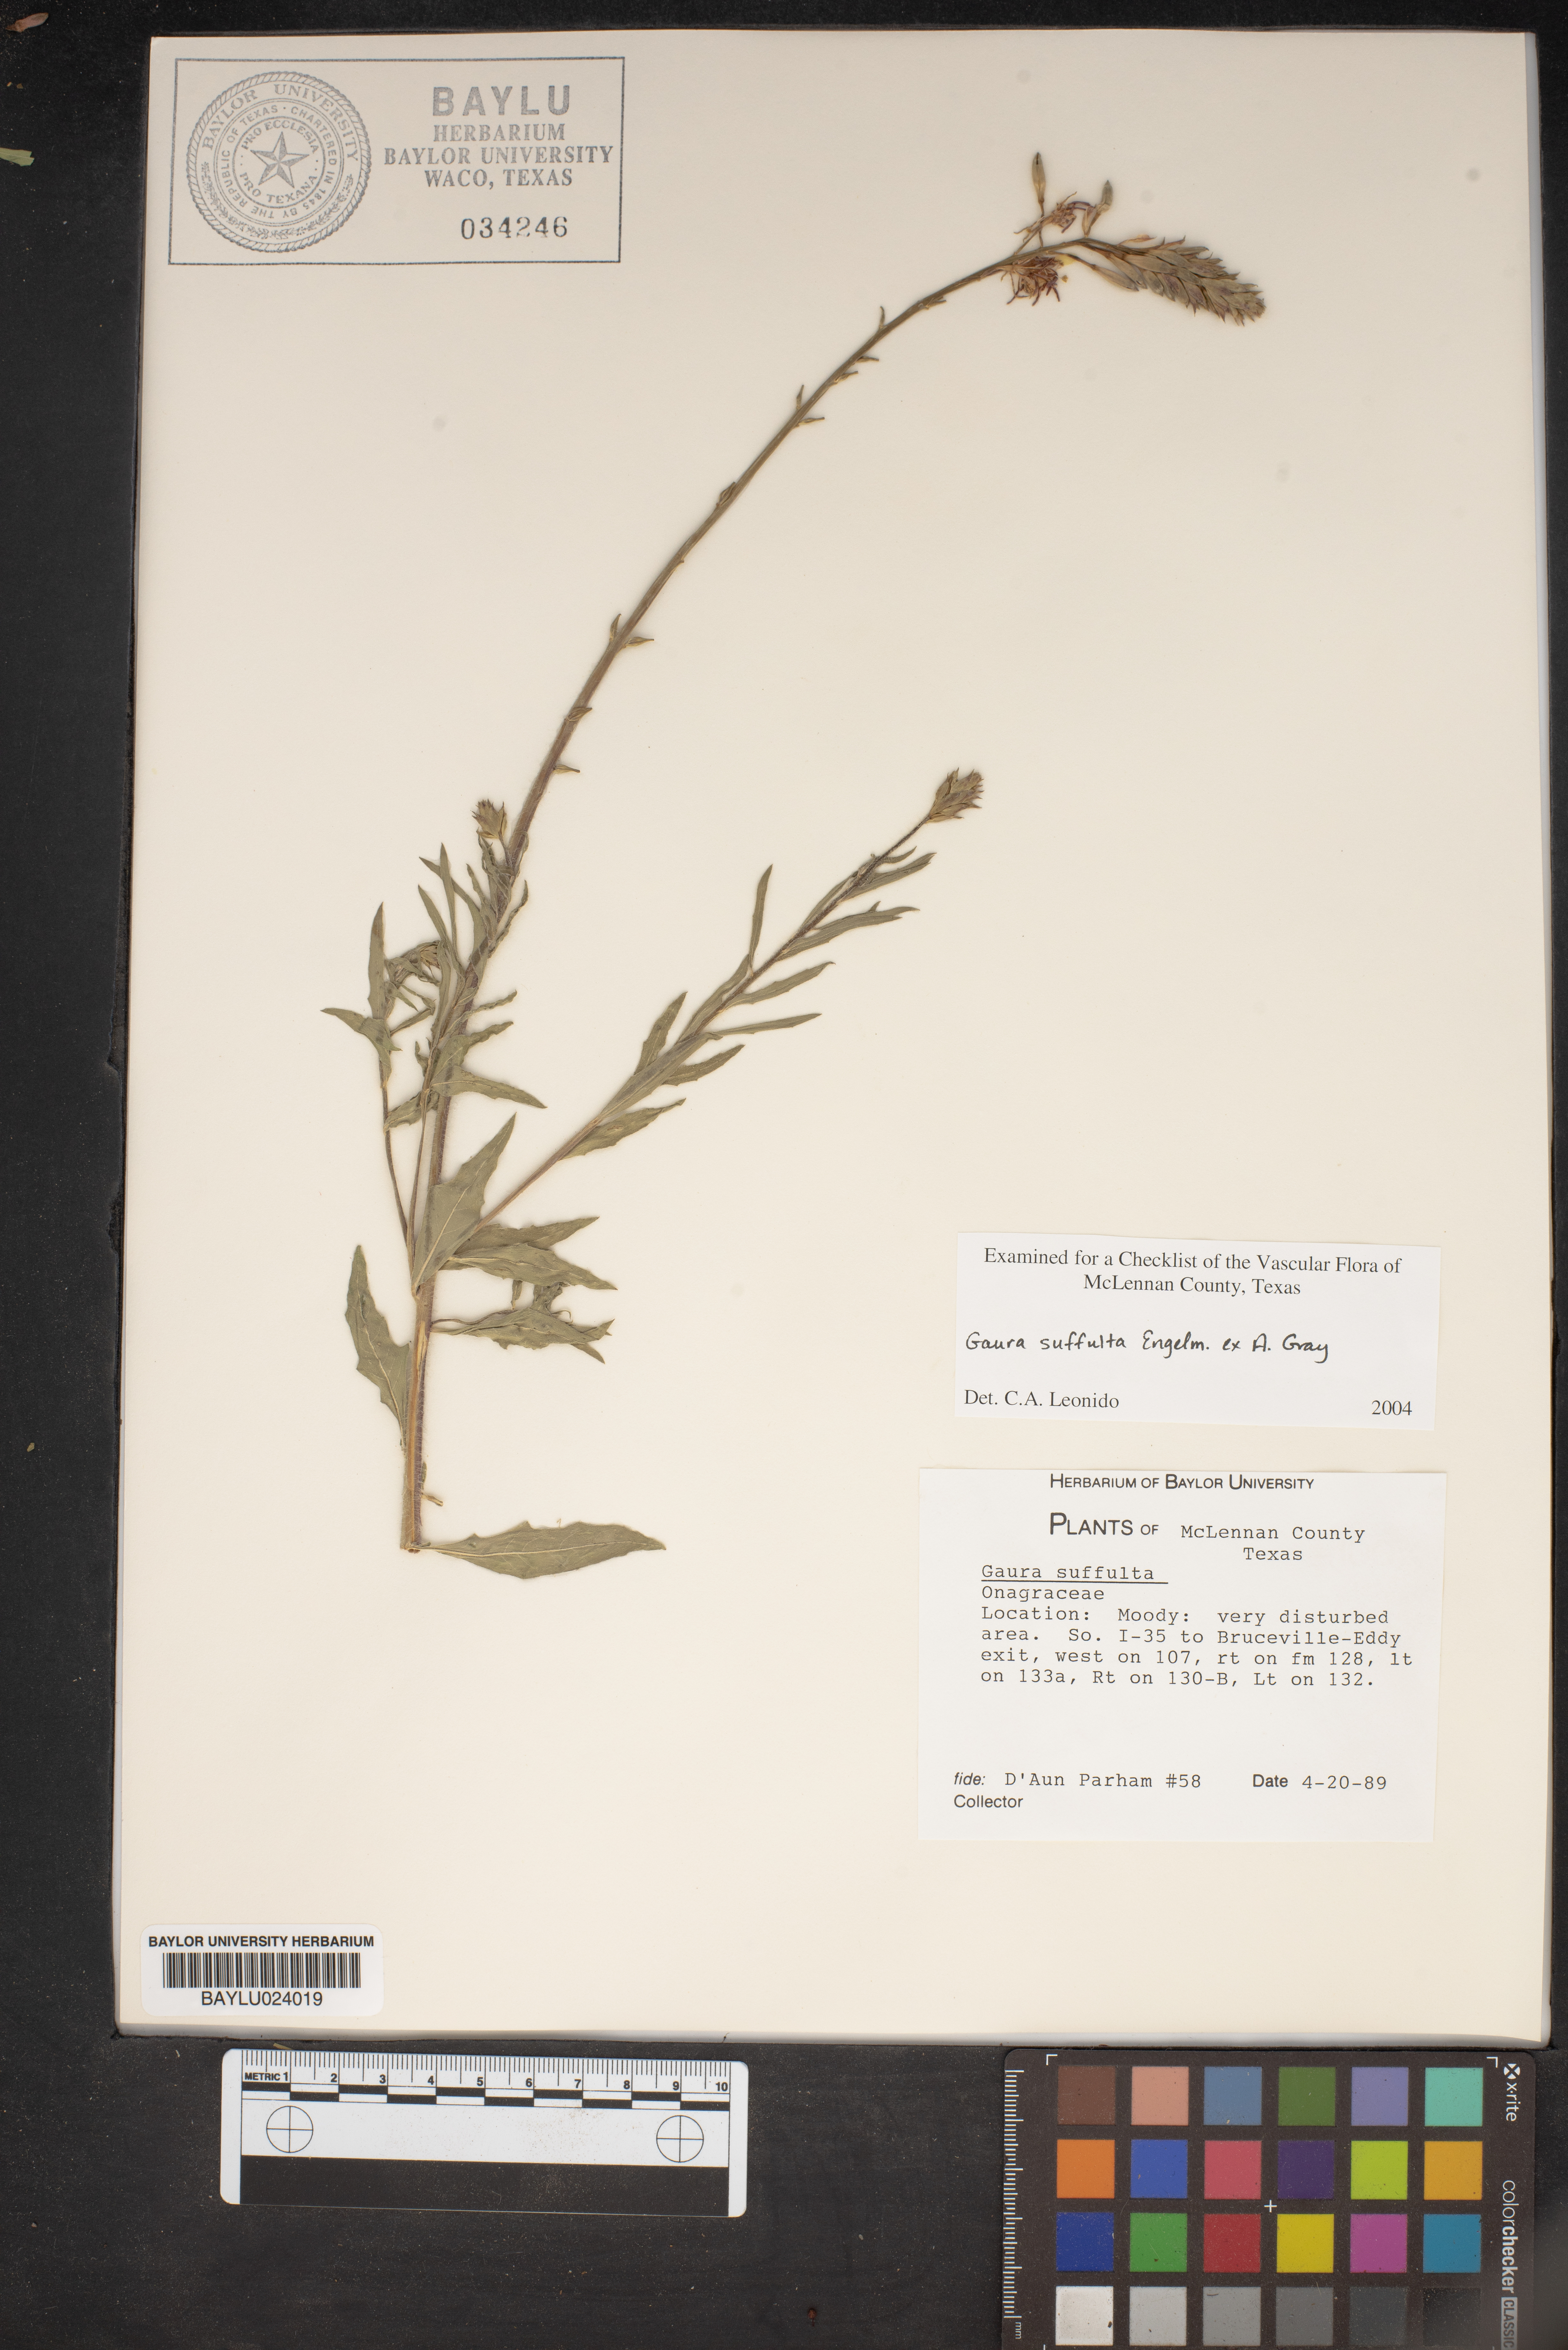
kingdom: Plantae
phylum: Tracheophyta
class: Magnoliopsida
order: Myrtales
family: Onagraceae
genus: Oenothera
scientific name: Oenothera Gaura suffulta
